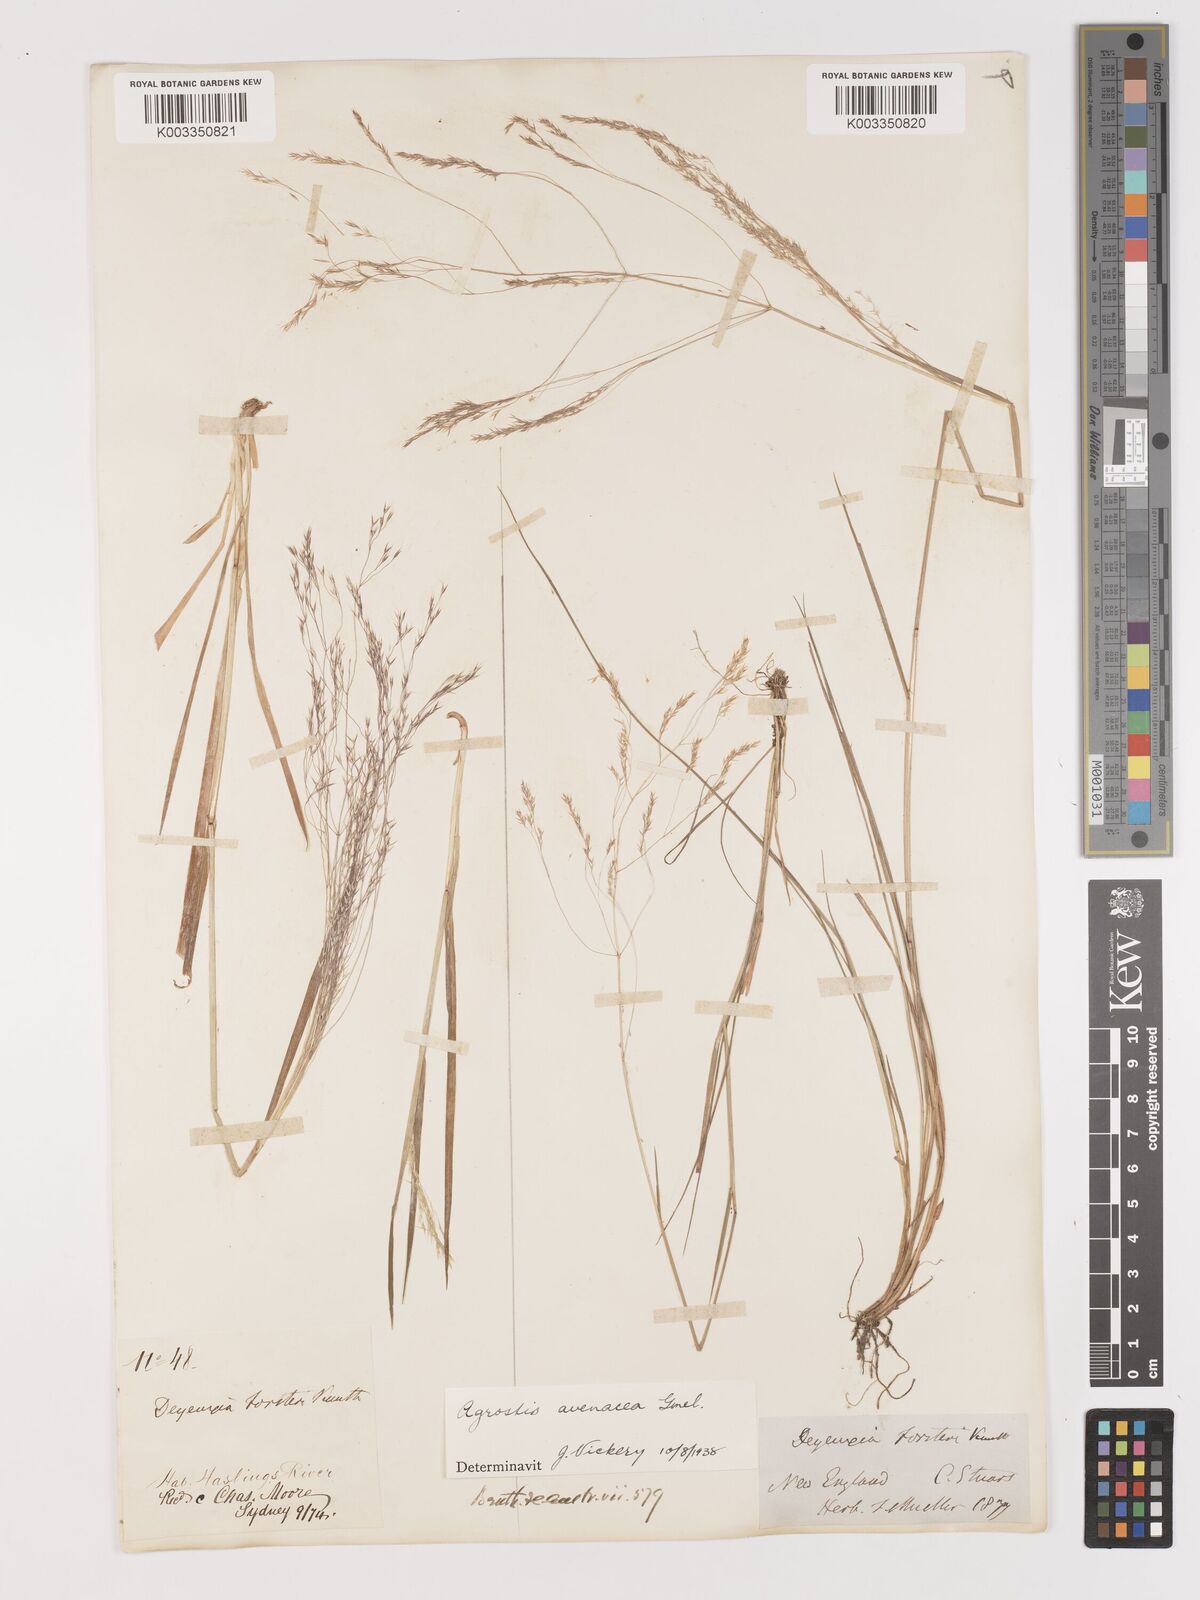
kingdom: Plantae
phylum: Tracheophyta
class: Liliopsida
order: Poales
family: Poaceae
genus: Lachnagrostis
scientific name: Lachnagrostis filiformis
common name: Bentgrass
